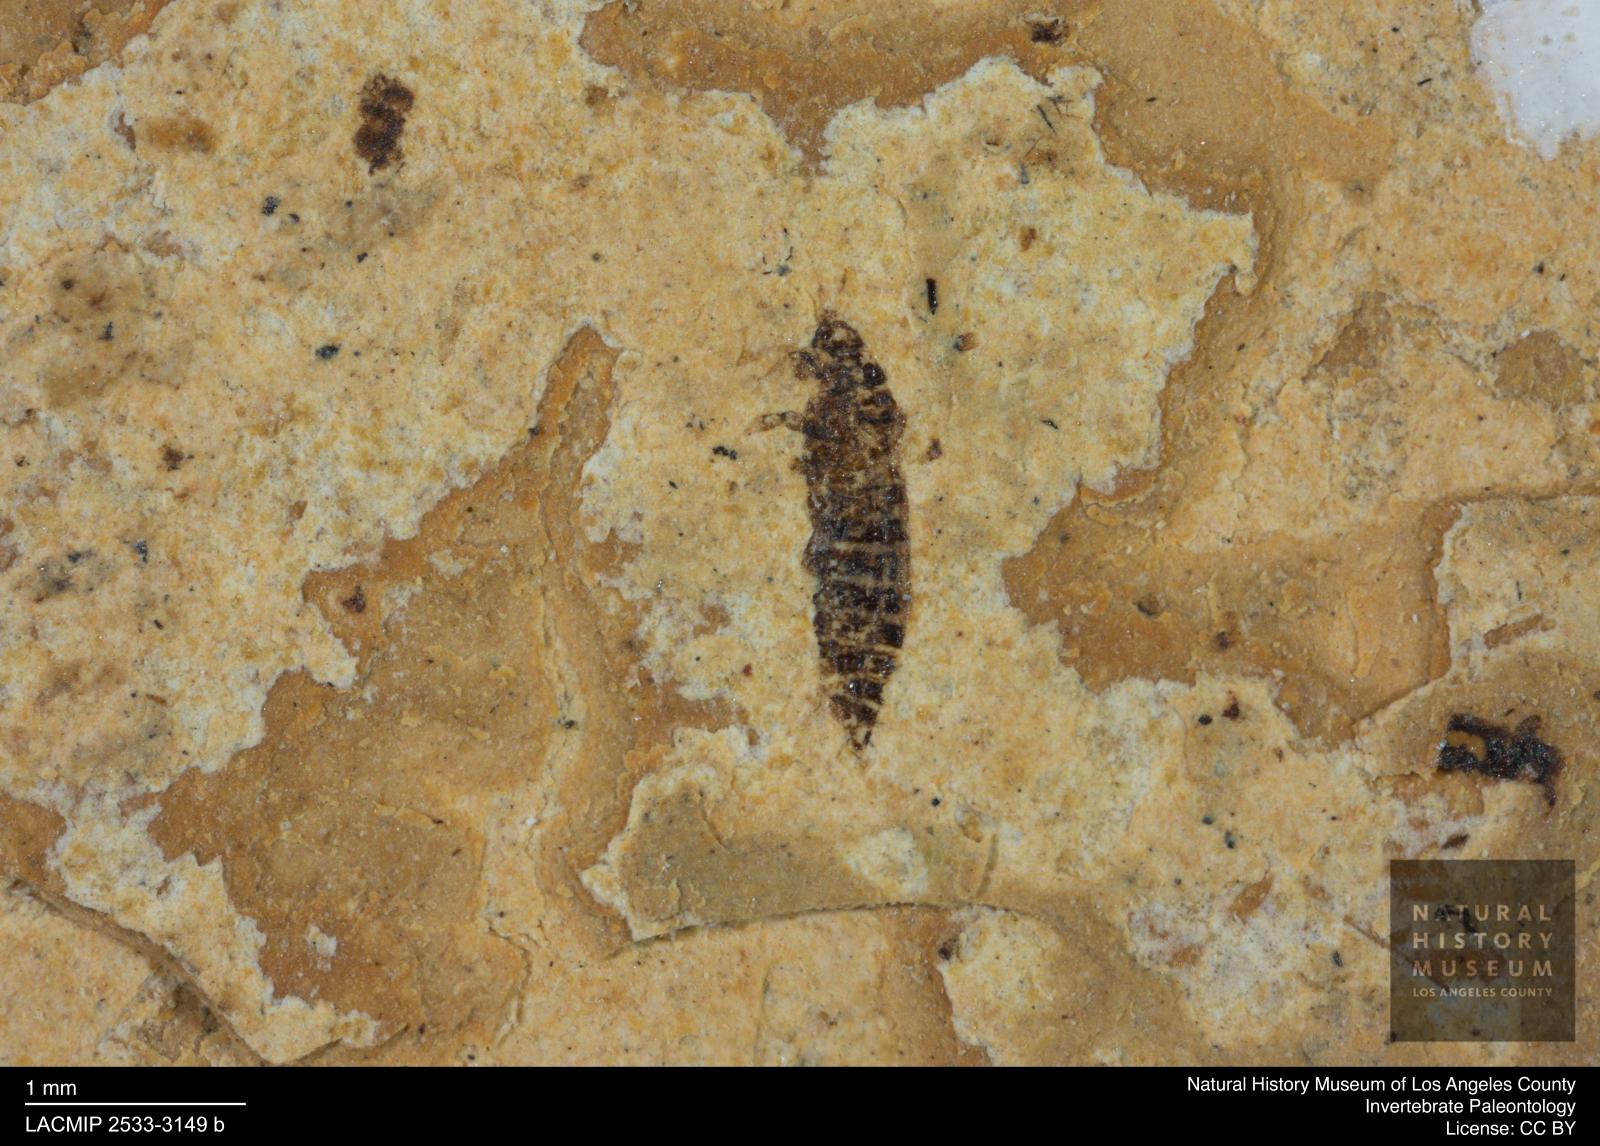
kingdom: Animalia
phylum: Arthropoda
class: Insecta
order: Thysanoptera
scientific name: Thysanoptera
